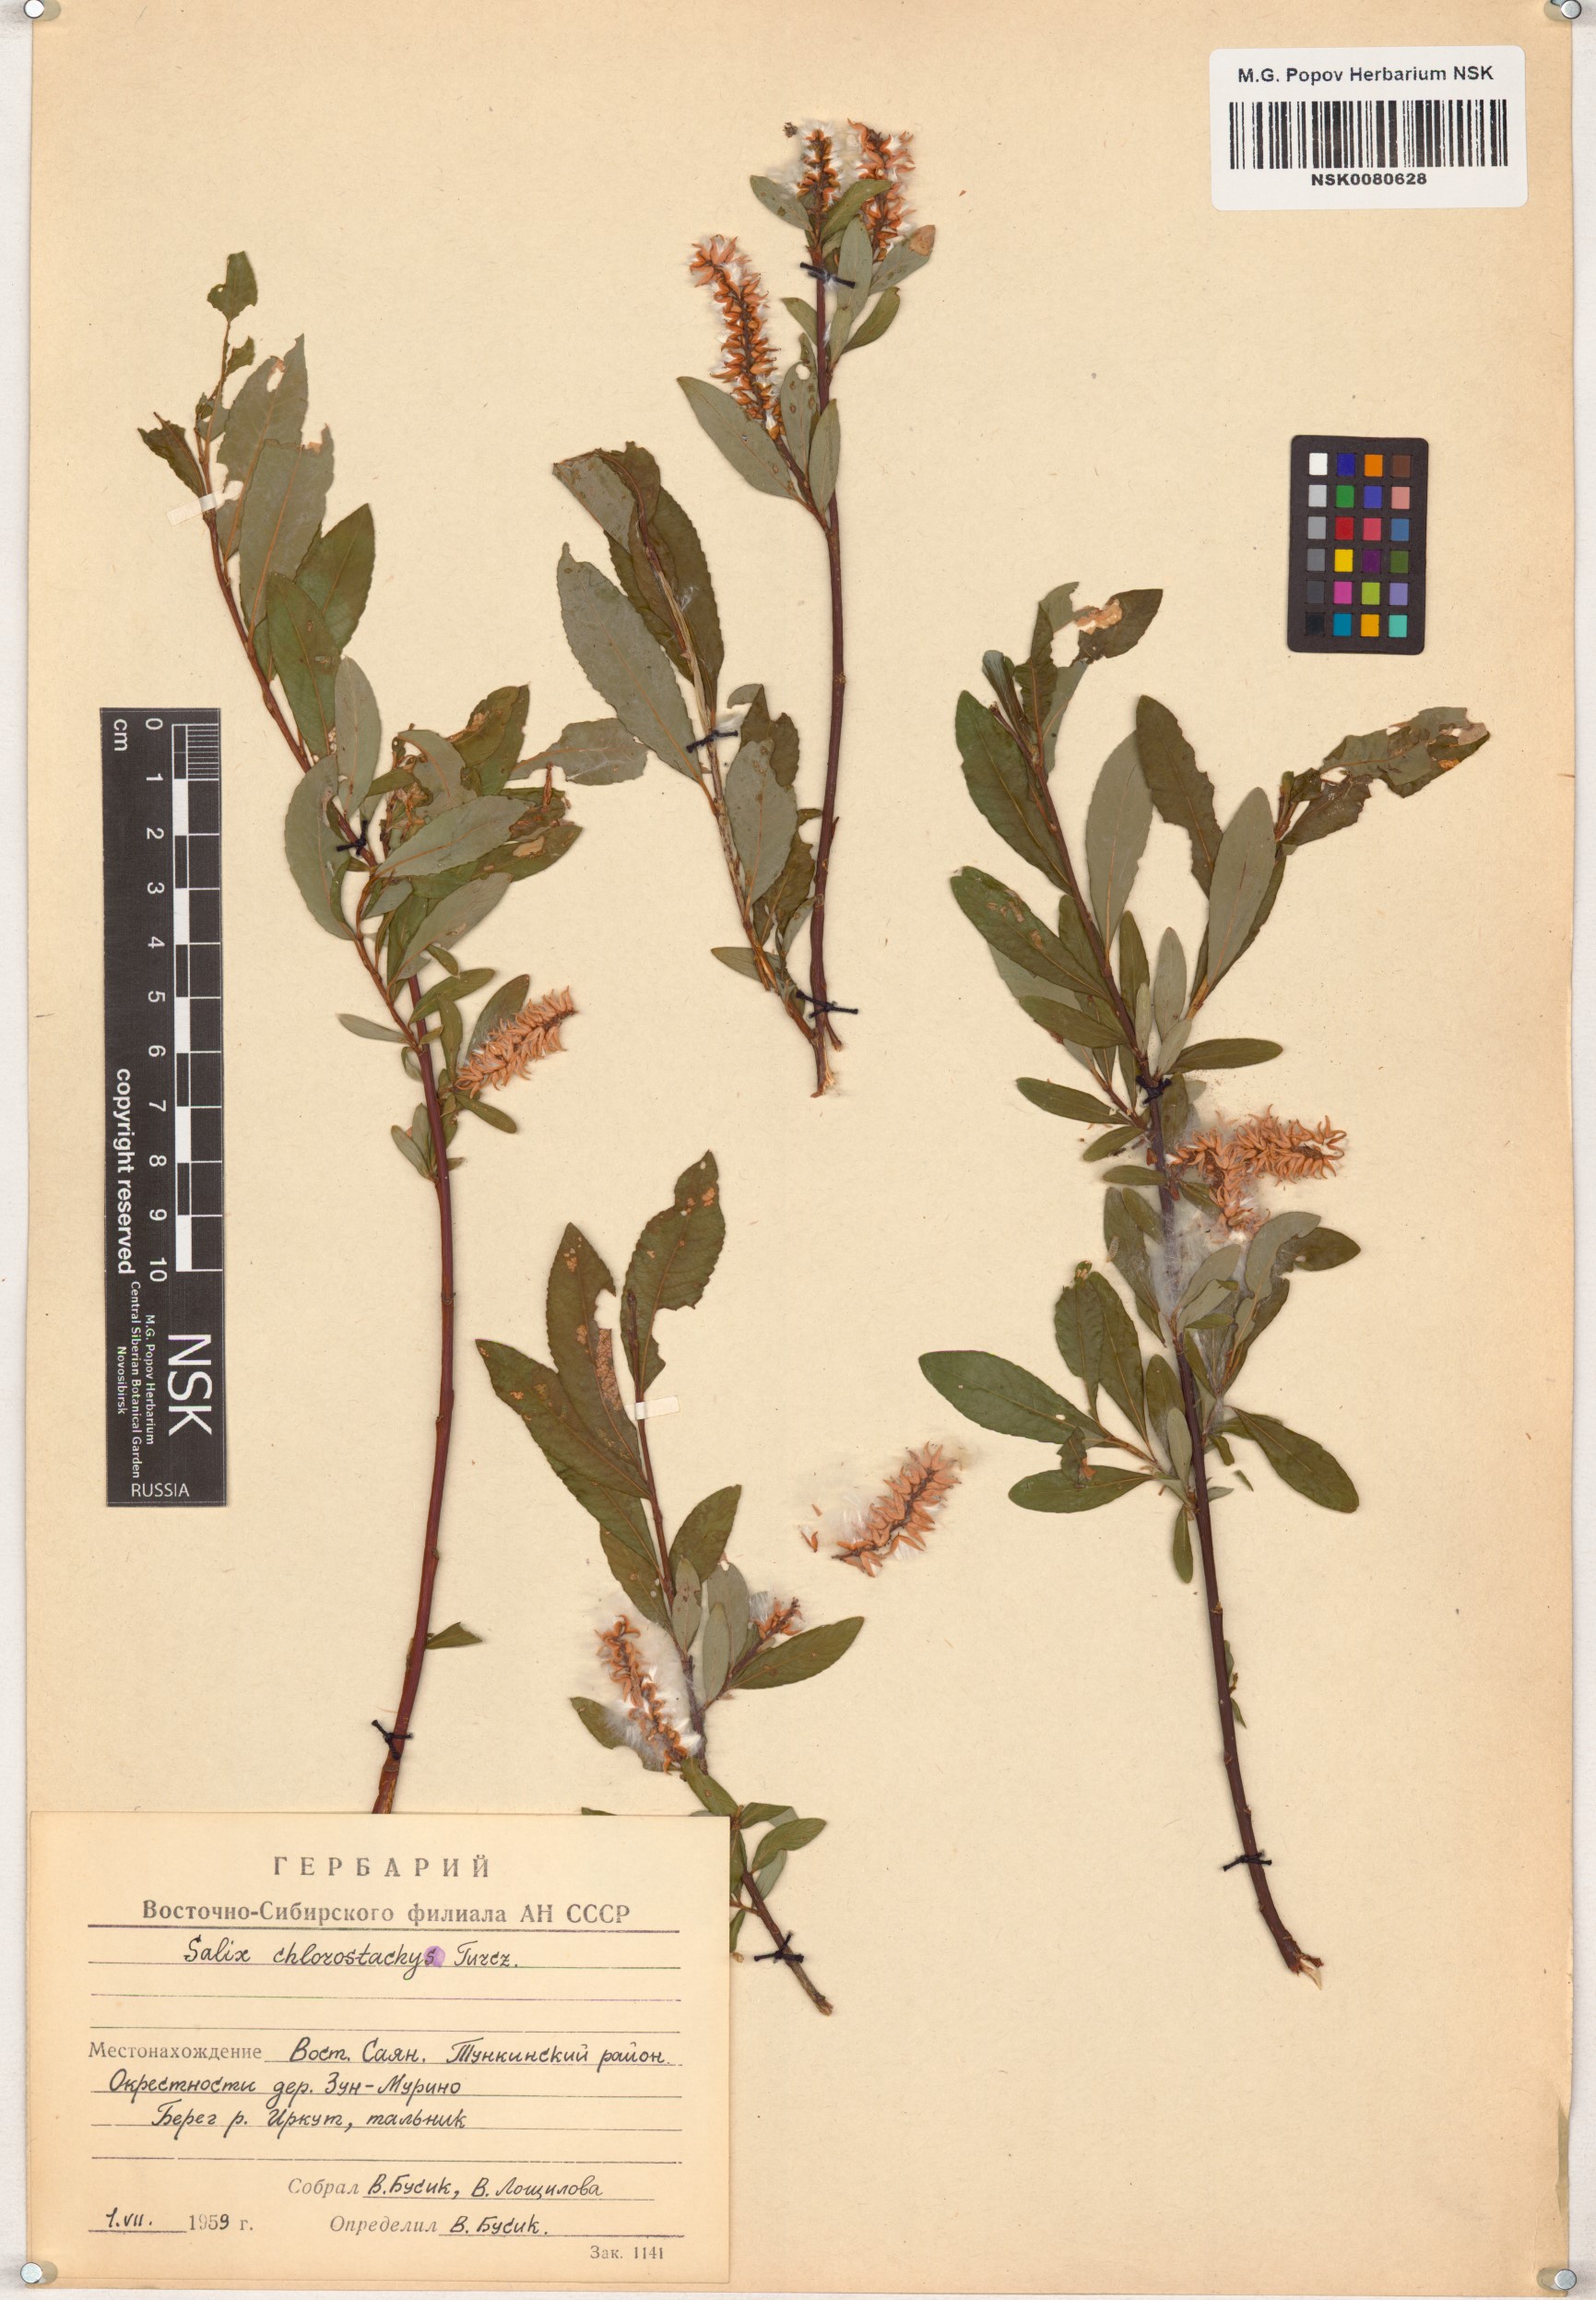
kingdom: Plantae
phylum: Tracheophyta
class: Magnoliopsida
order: Malpighiales
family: Salicaceae
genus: Salix
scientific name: Salix rhamnifolia
